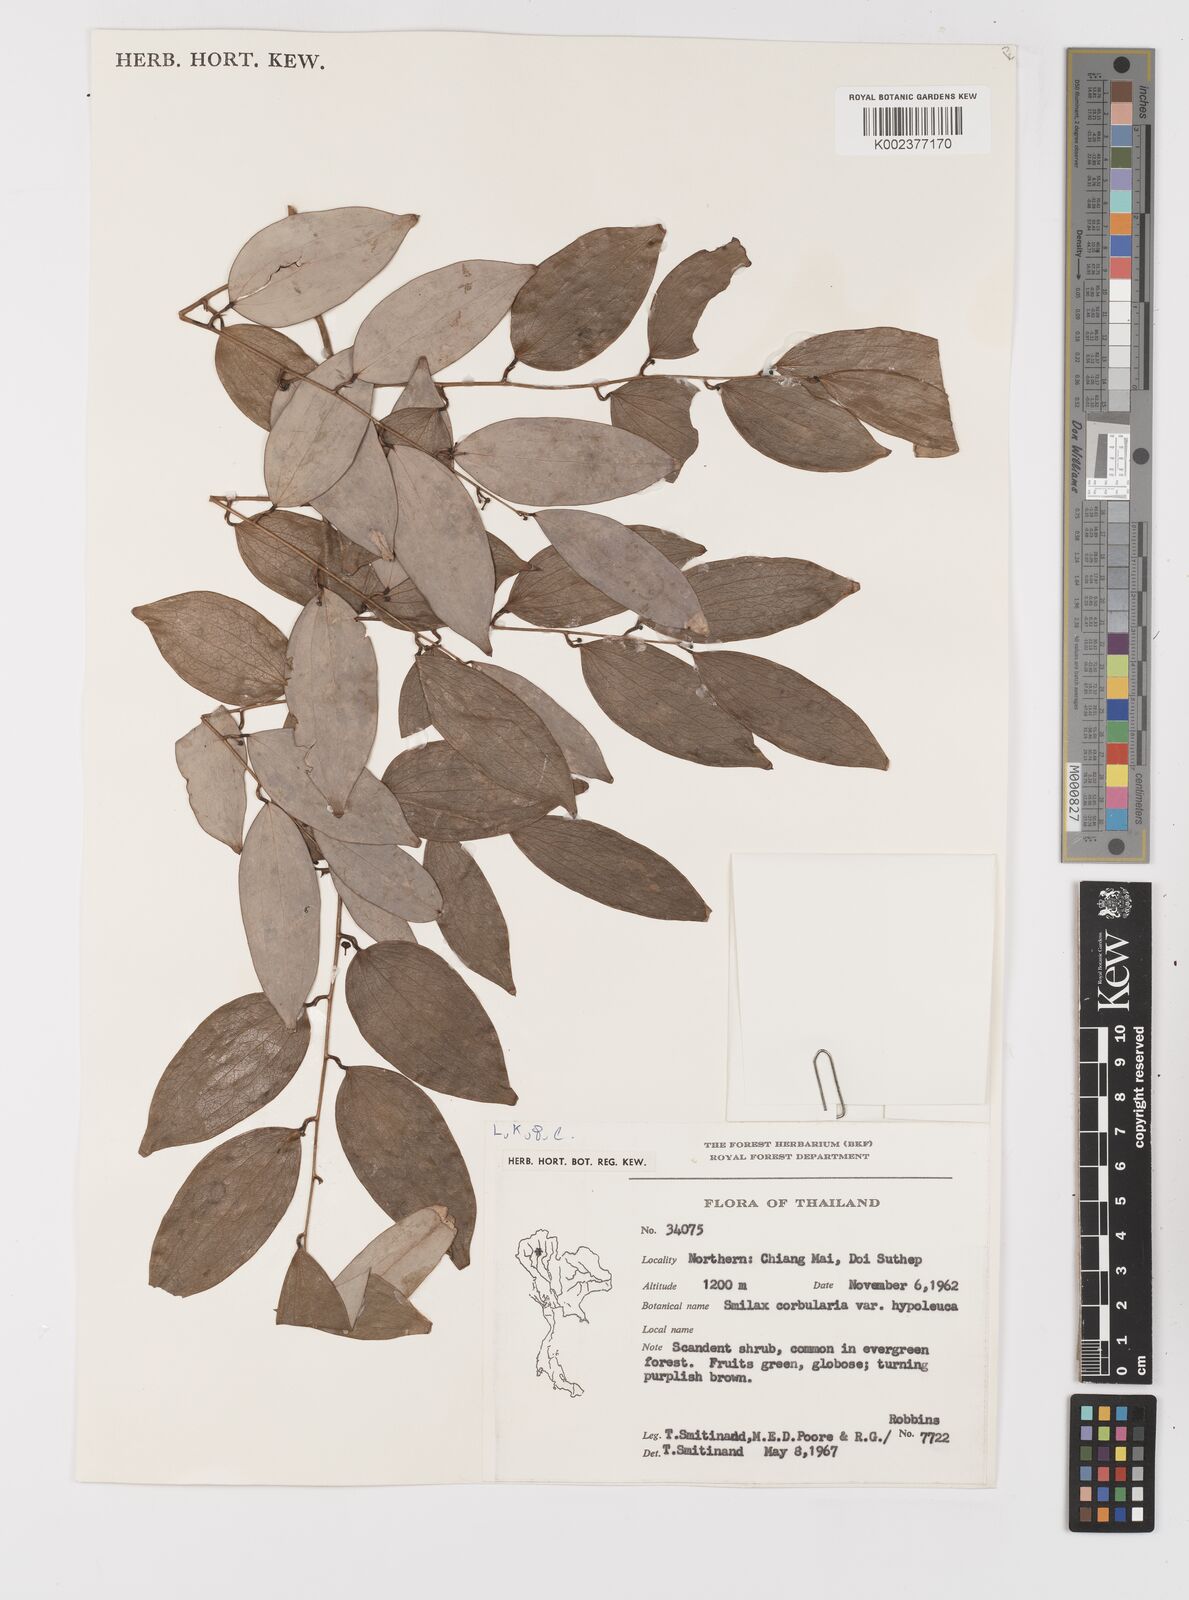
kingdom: Plantae
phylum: Tracheophyta
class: Liliopsida
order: Liliales
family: Smilacaceae
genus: Smilax
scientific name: Smilax corbularia
